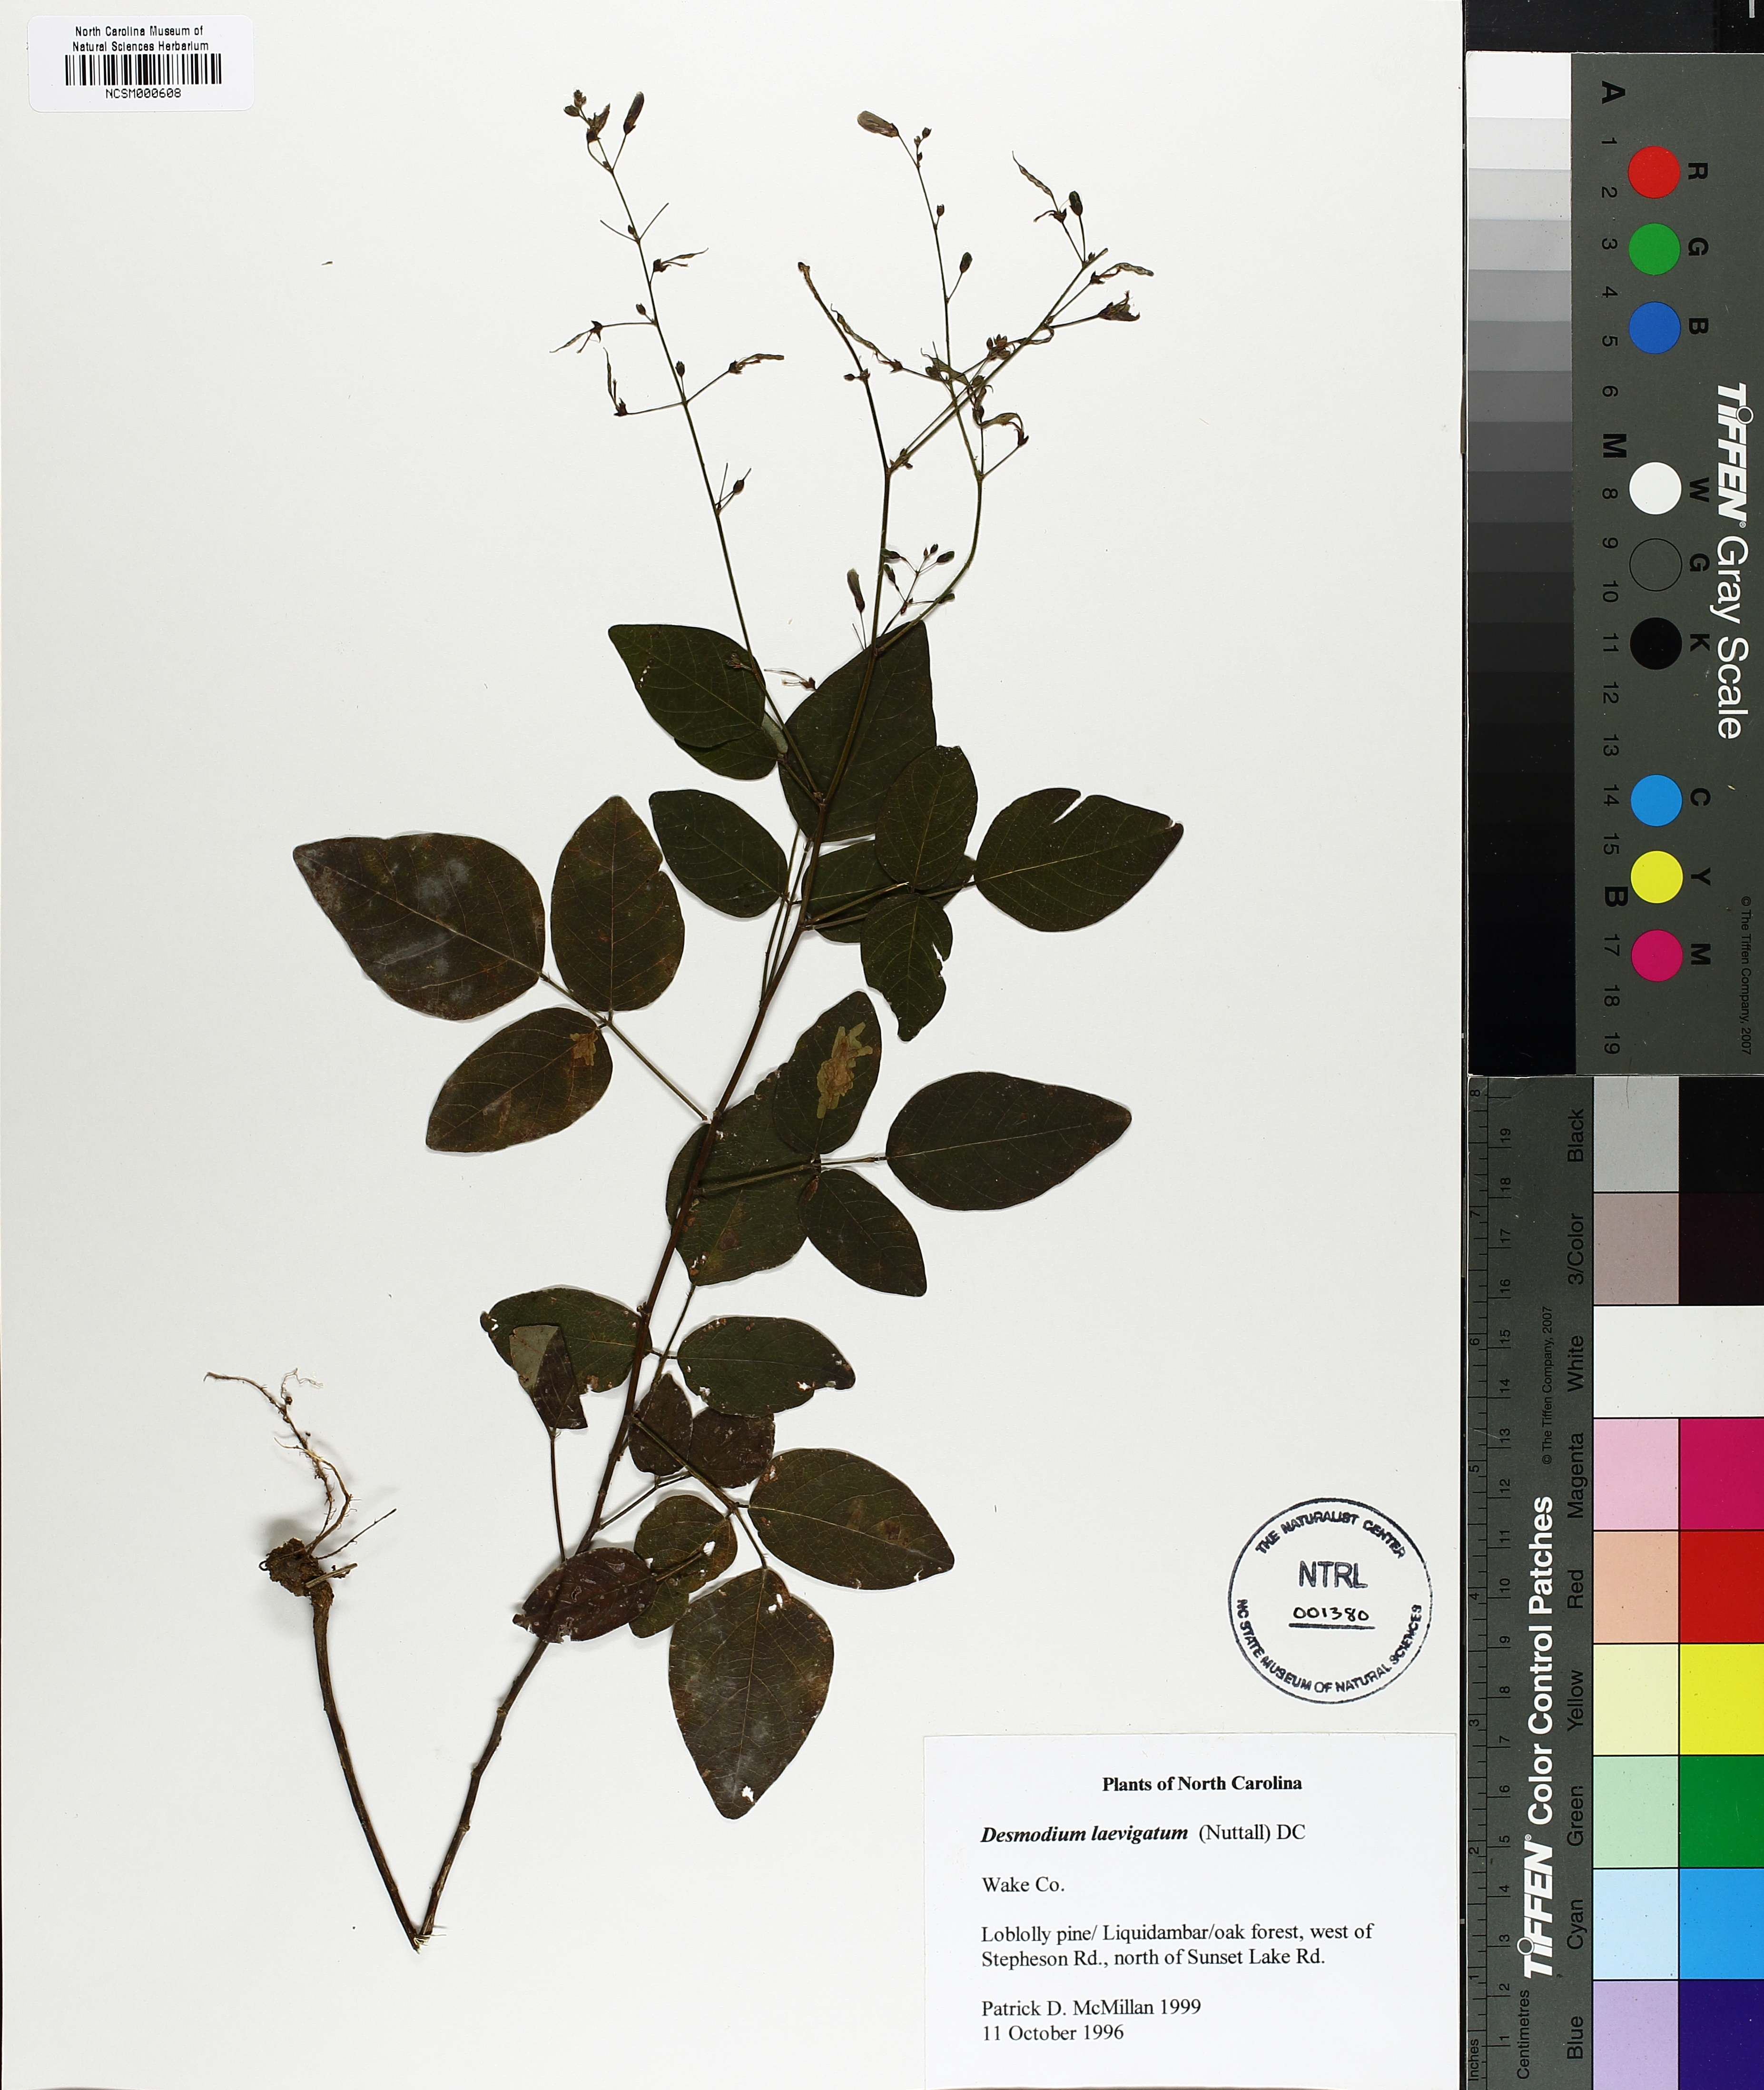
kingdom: Plantae
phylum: Tracheophyta
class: Magnoliopsida
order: Fabales
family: Fabaceae
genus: Desmodium
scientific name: Desmodium laevigatum
